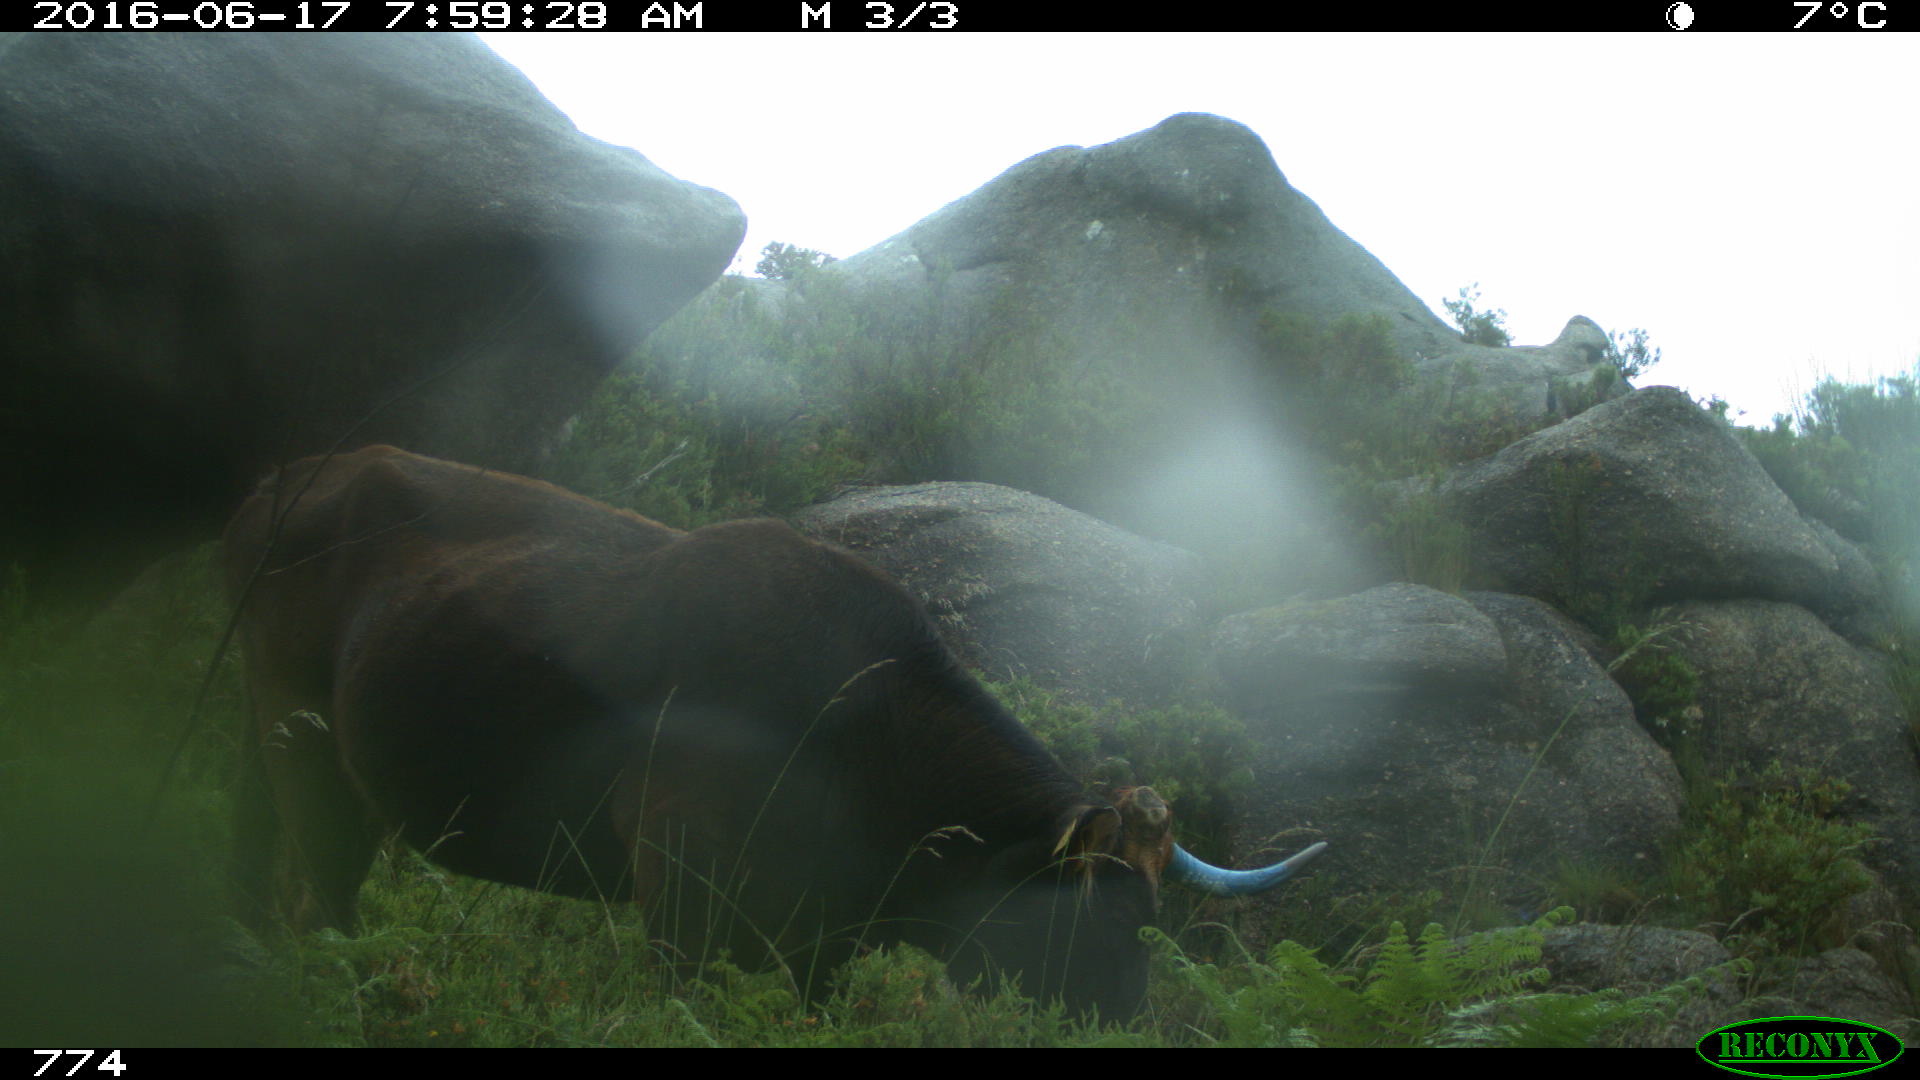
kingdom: Animalia
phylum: Chordata
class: Mammalia
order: Artiodactyla
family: Bovidae
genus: Bos
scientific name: Bos taurus
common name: Domesticated cattle
